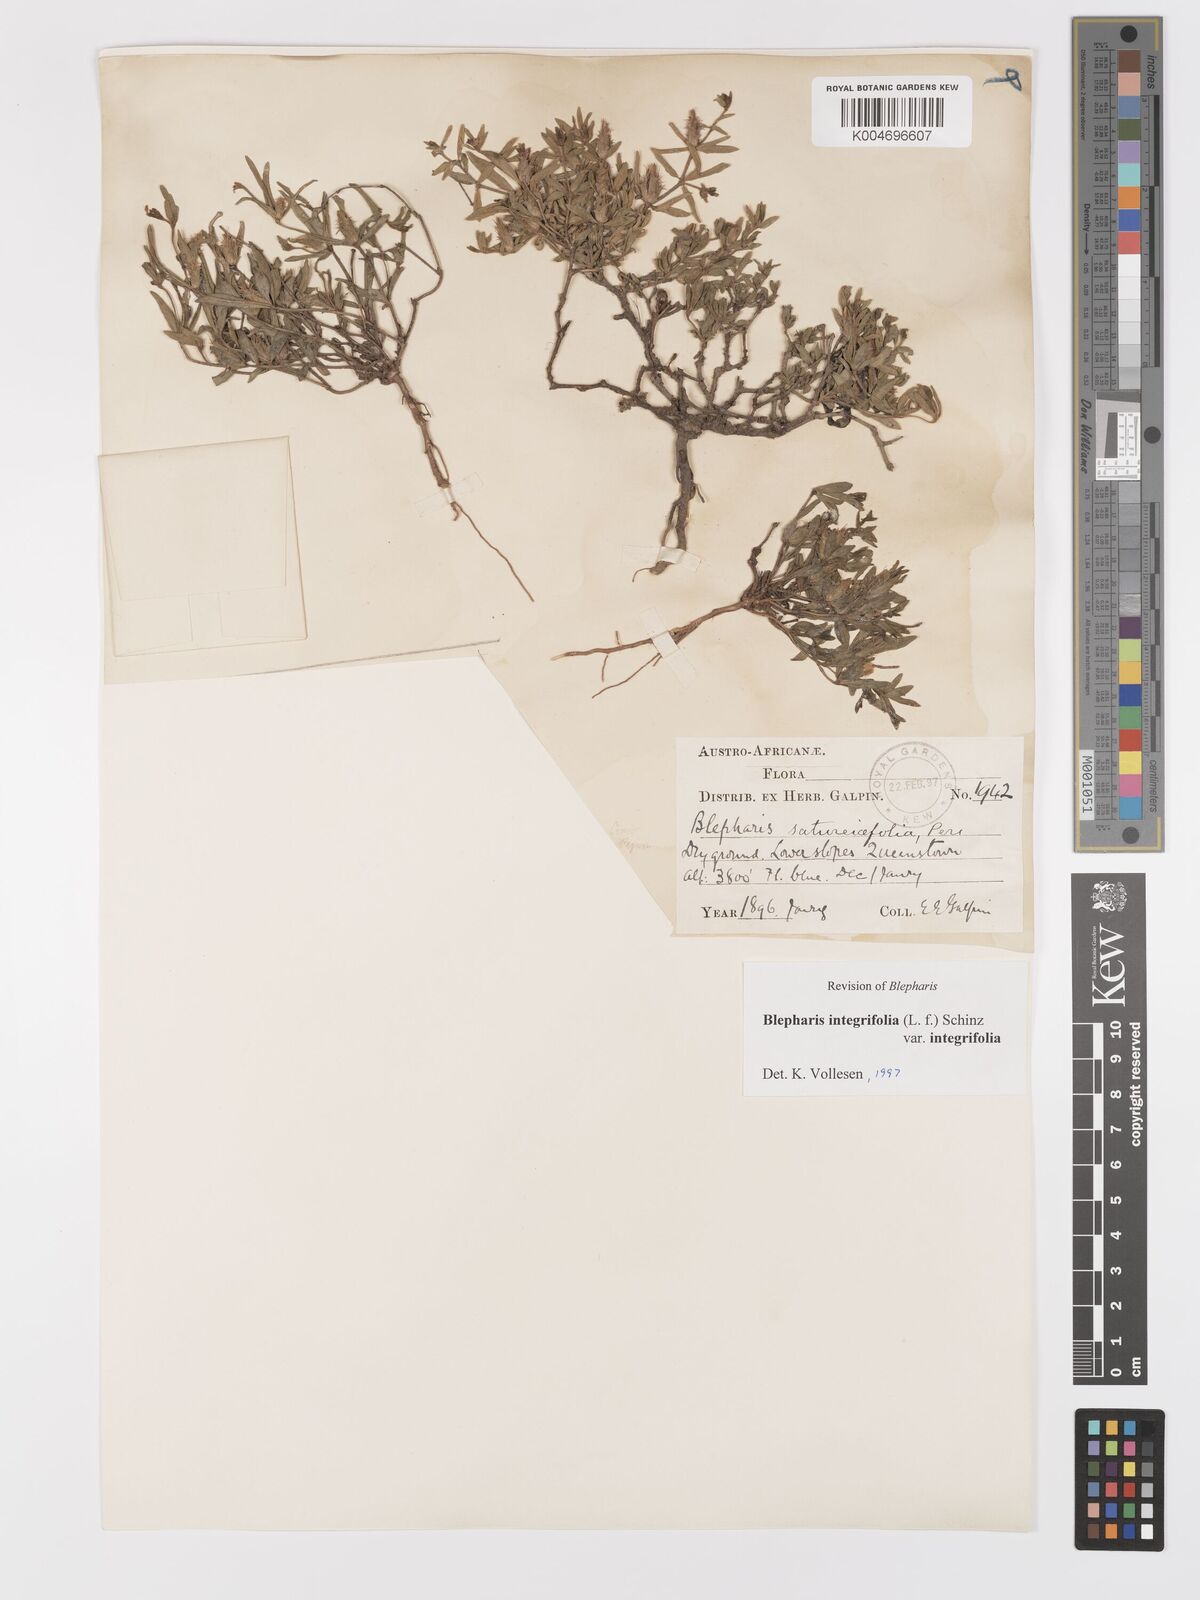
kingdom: Plantae
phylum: Tracheophyta
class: Magnoliopsida
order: Lamiales
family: Acanthaceae
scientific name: Acanthaceae
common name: Acanthaceae
